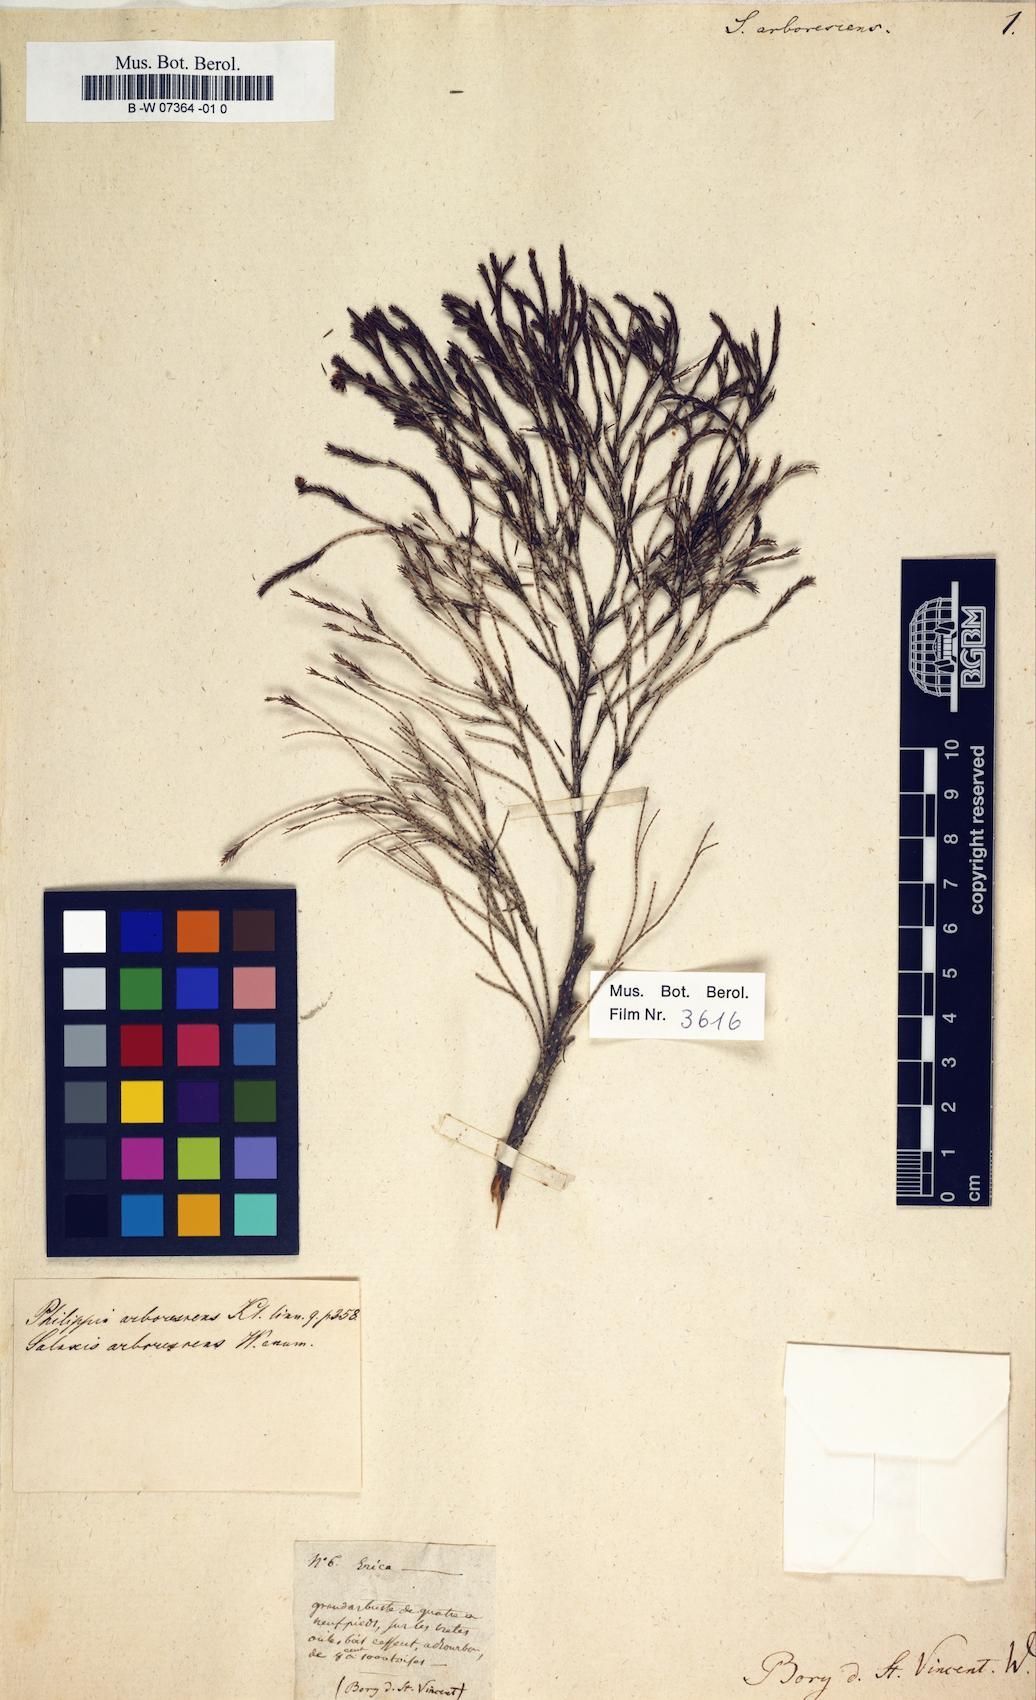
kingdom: Plantae
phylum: Tracheophyta
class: Magnoliopsida
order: Ericales
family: Ericaceae
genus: Erica
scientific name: Erica arborescens
